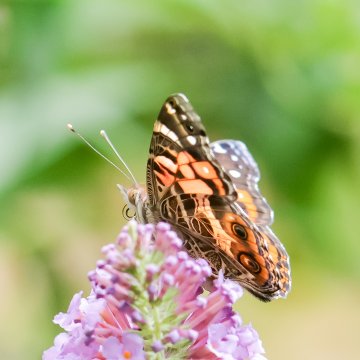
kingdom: Animalia
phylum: Arthropoda
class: Insecta
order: Lepidoptera
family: Nymphalidae
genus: Vanessa
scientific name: Vanessa virginiensis
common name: American Lady
